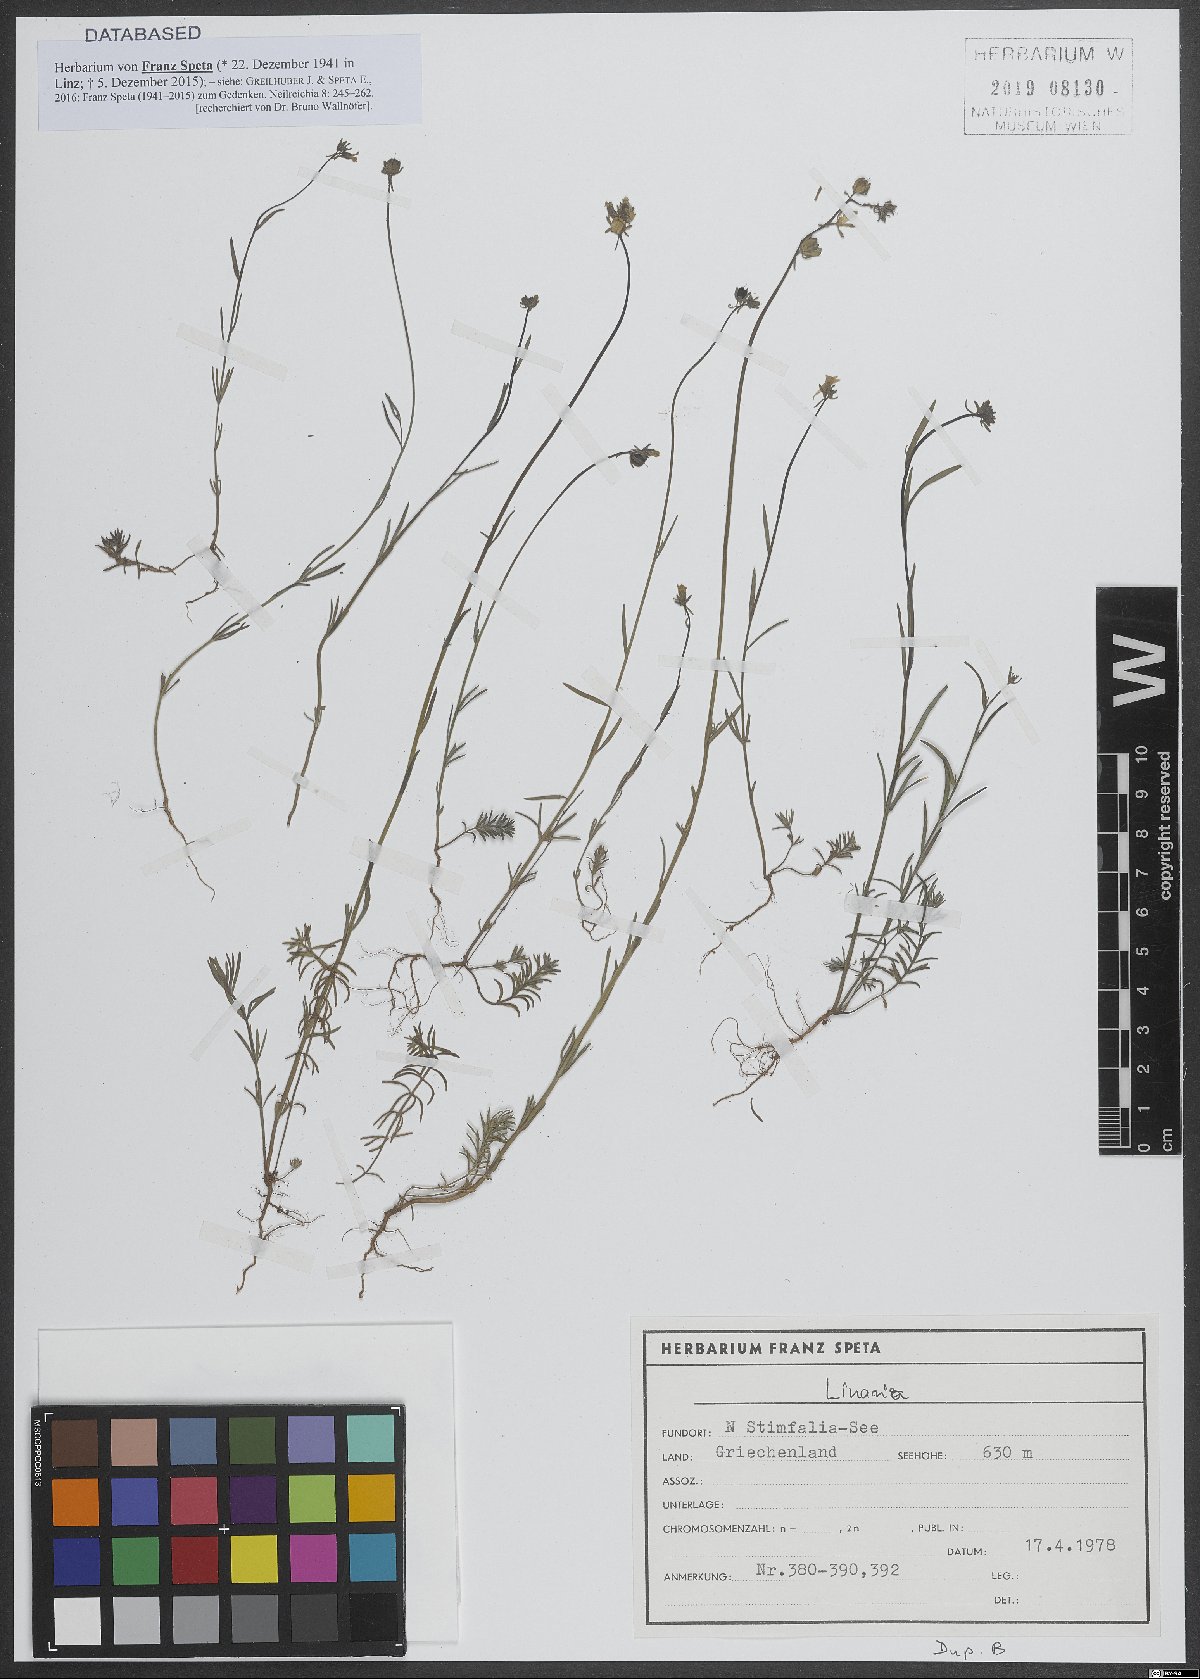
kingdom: Plantae
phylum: Tracheophyta
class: Magnoliopsida
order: Lamiales
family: Plantaginaceae
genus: Linaria
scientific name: Linaria
